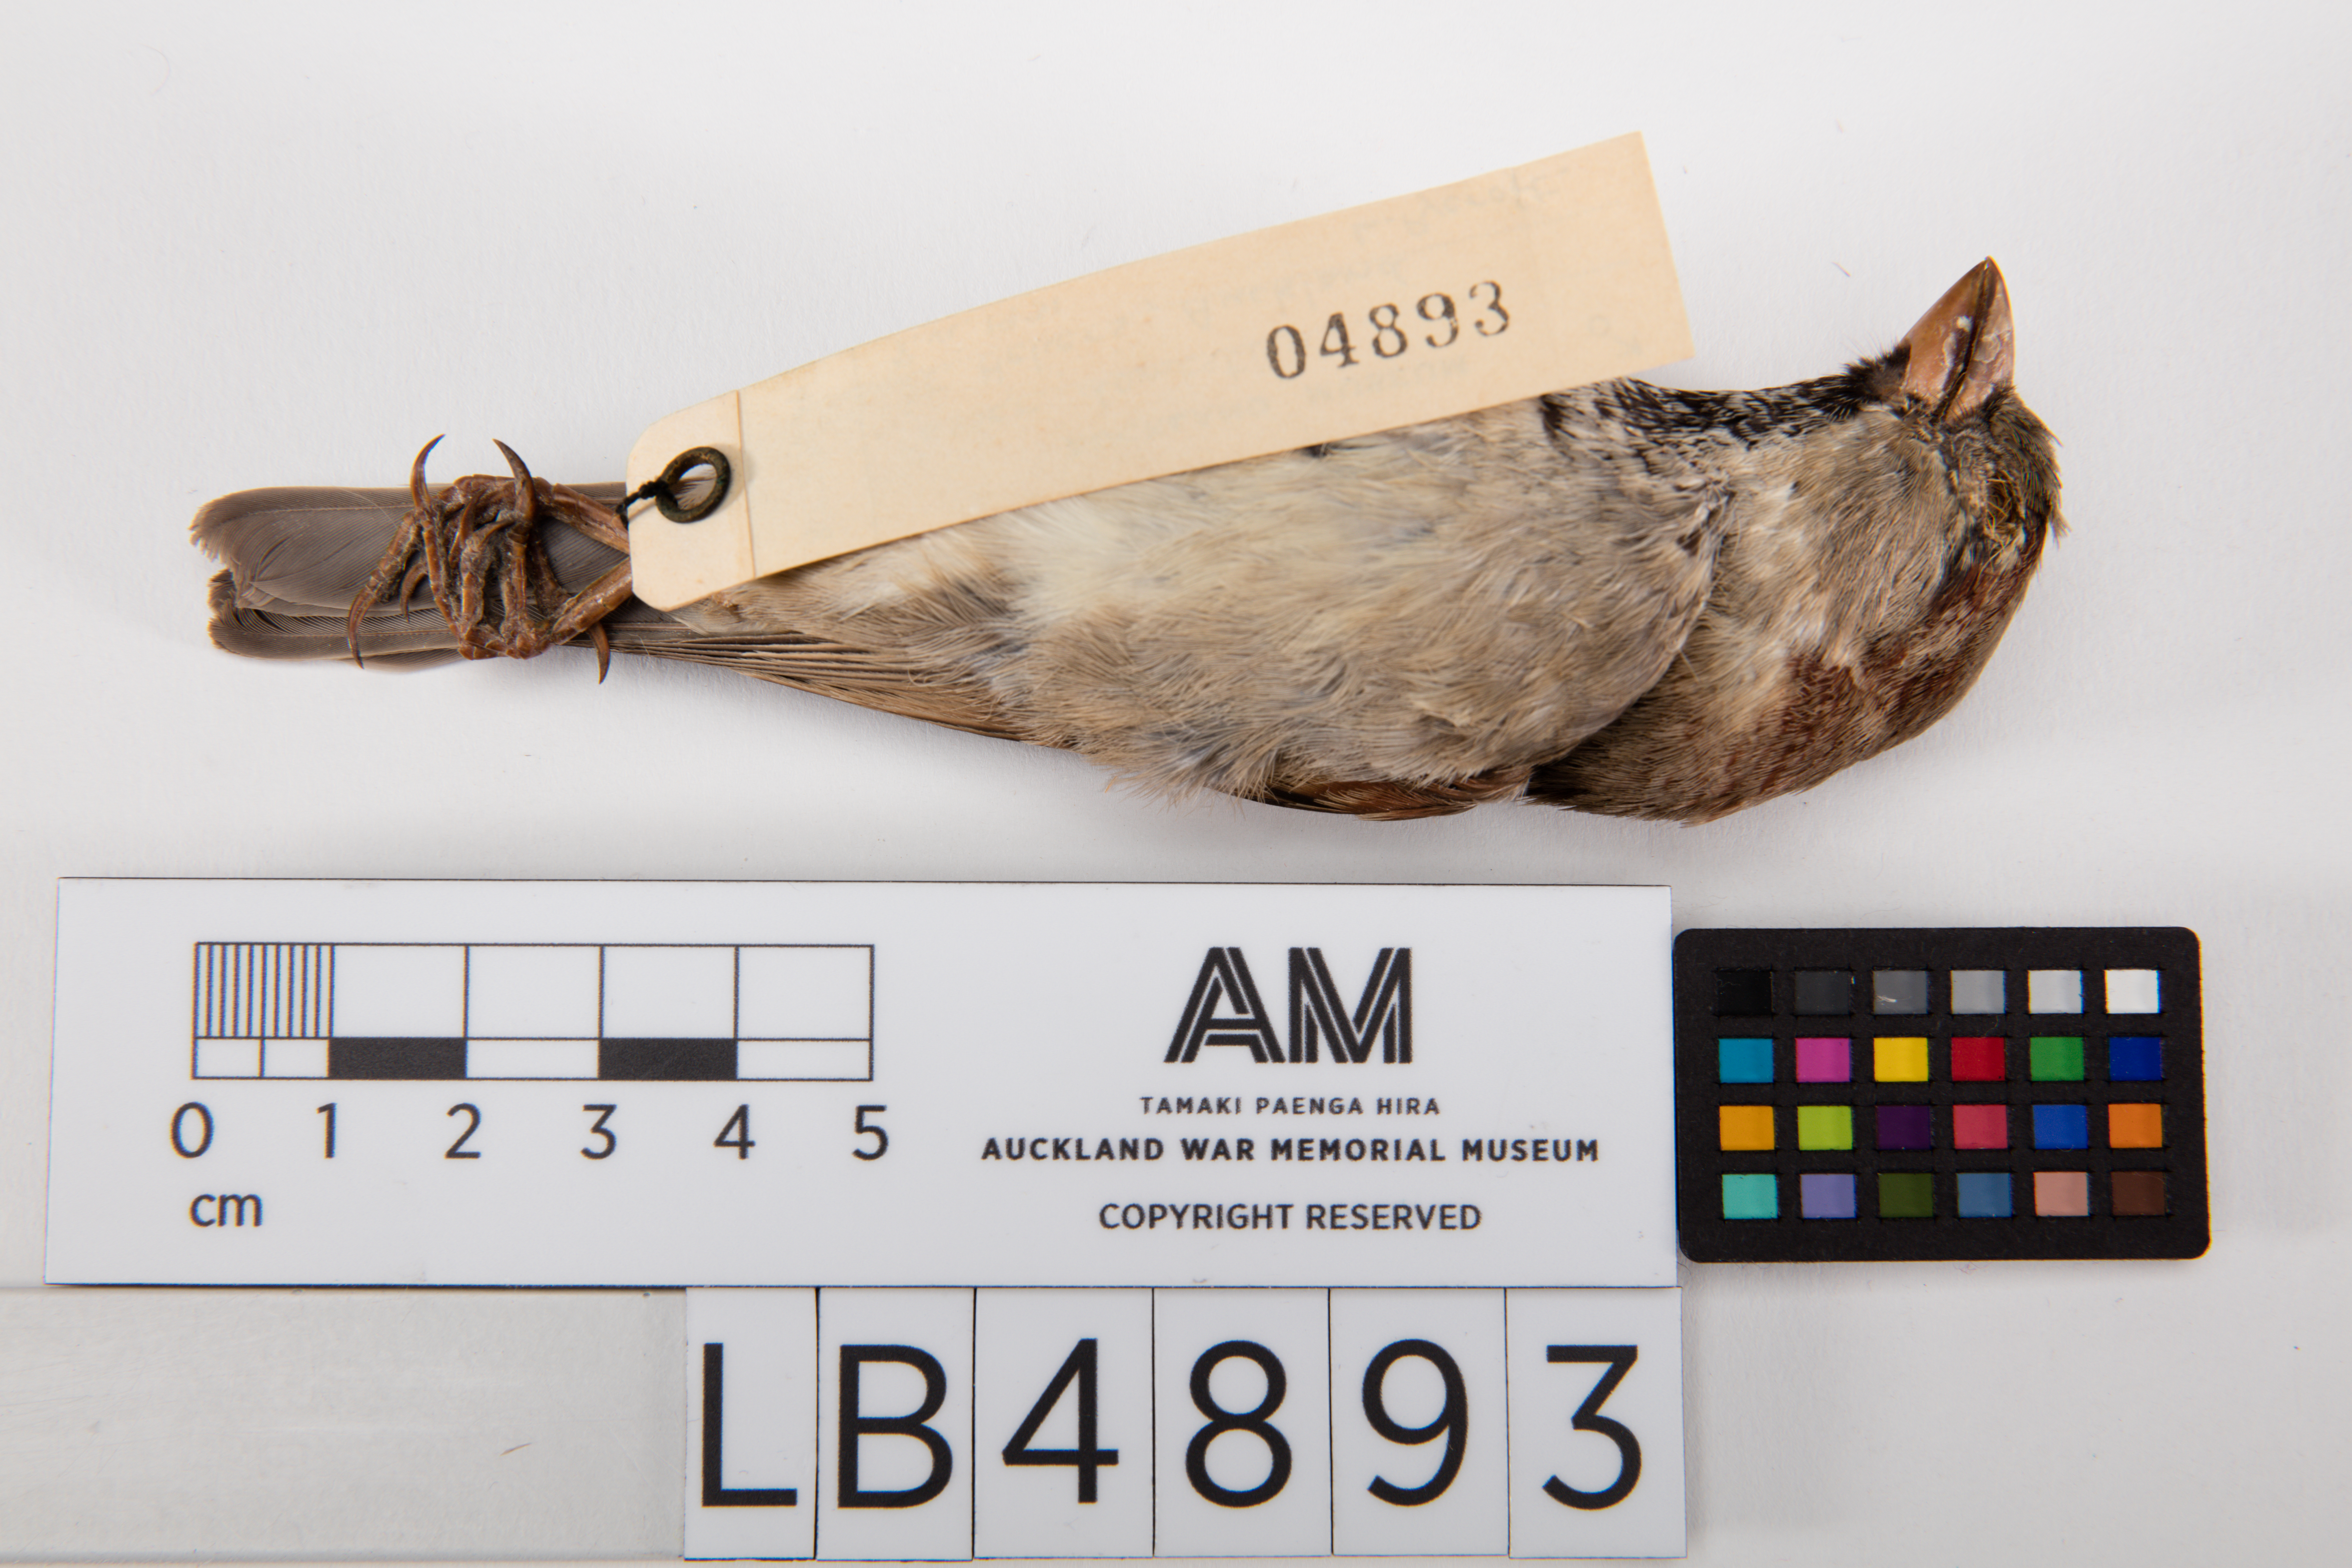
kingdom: Animalia
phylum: Chordata
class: Aves
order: Passeriformes
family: Passeridae
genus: Passer
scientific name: Passer domesticus
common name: House sparrow
